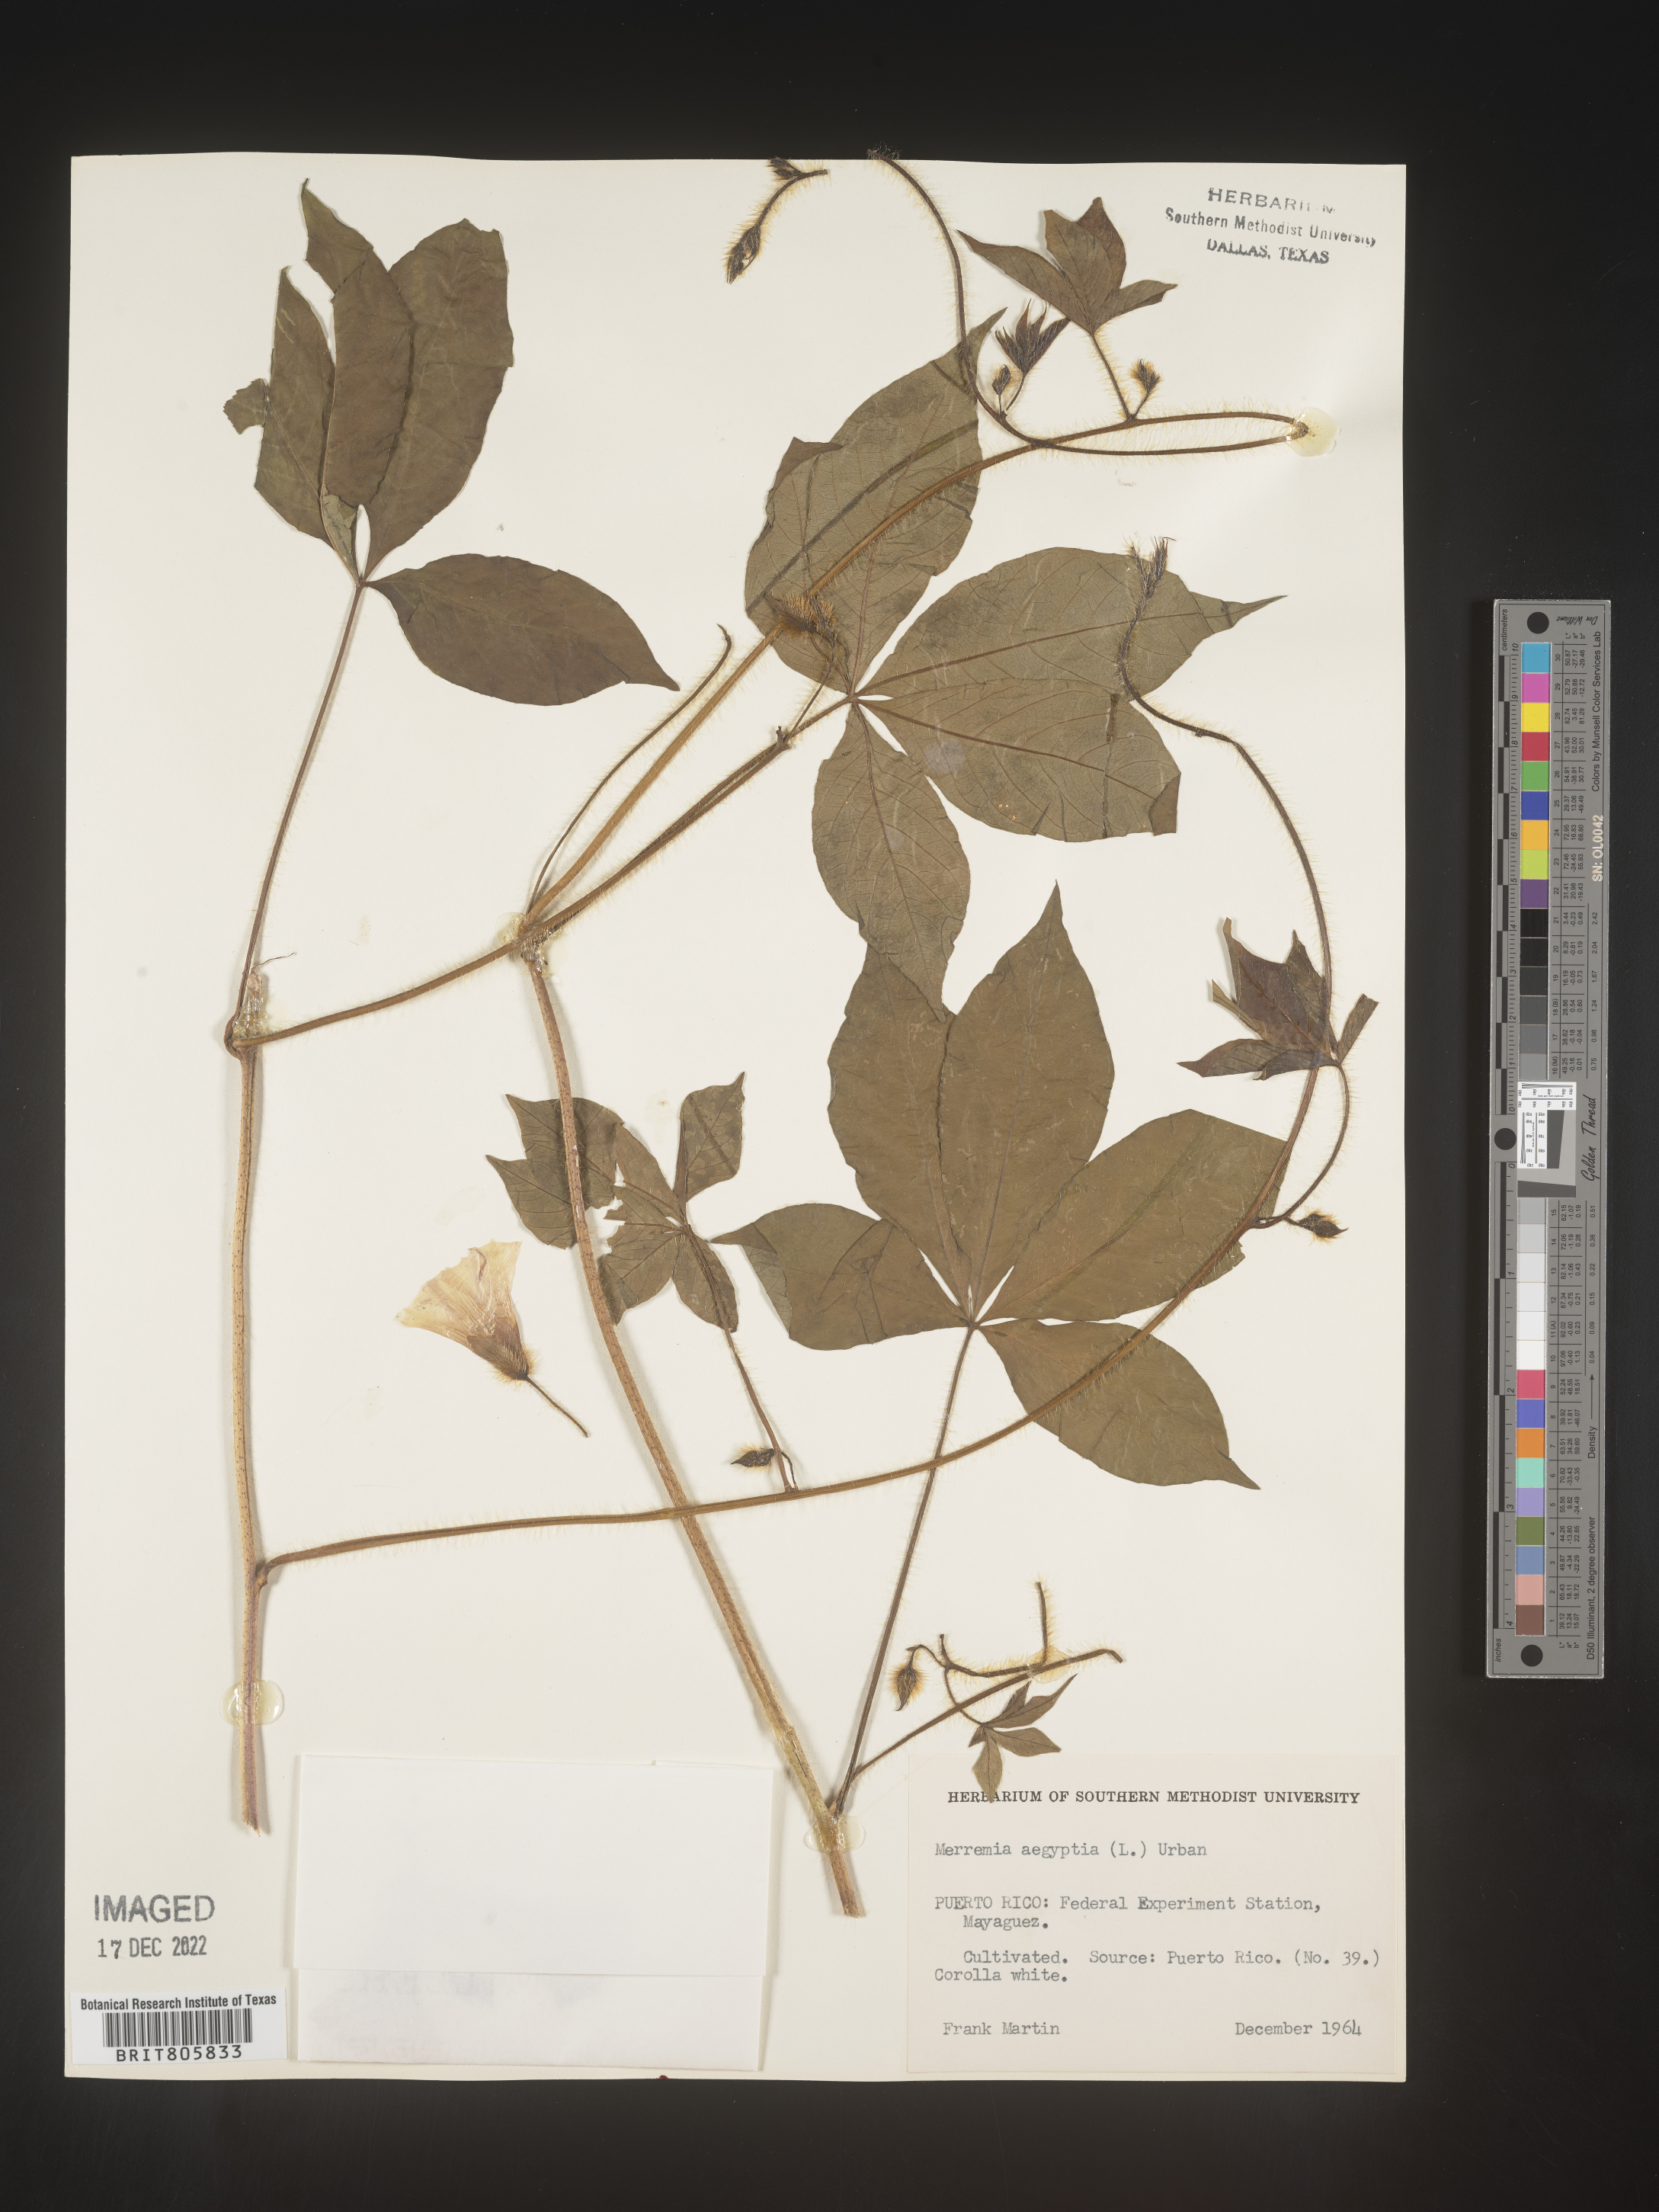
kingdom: Plantae
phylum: Tracheophyta
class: Magnoliopsida
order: Solanales
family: Convolvulaceae
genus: Merremia
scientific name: Merremia
